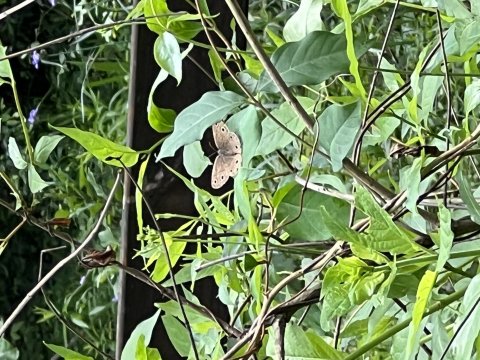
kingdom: Animalia
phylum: Arthropoda
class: Insecta
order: Lepidoptera
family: Nymphalidae
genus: Euptychia
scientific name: Euptychia cymela
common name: Little Wood Satyr
